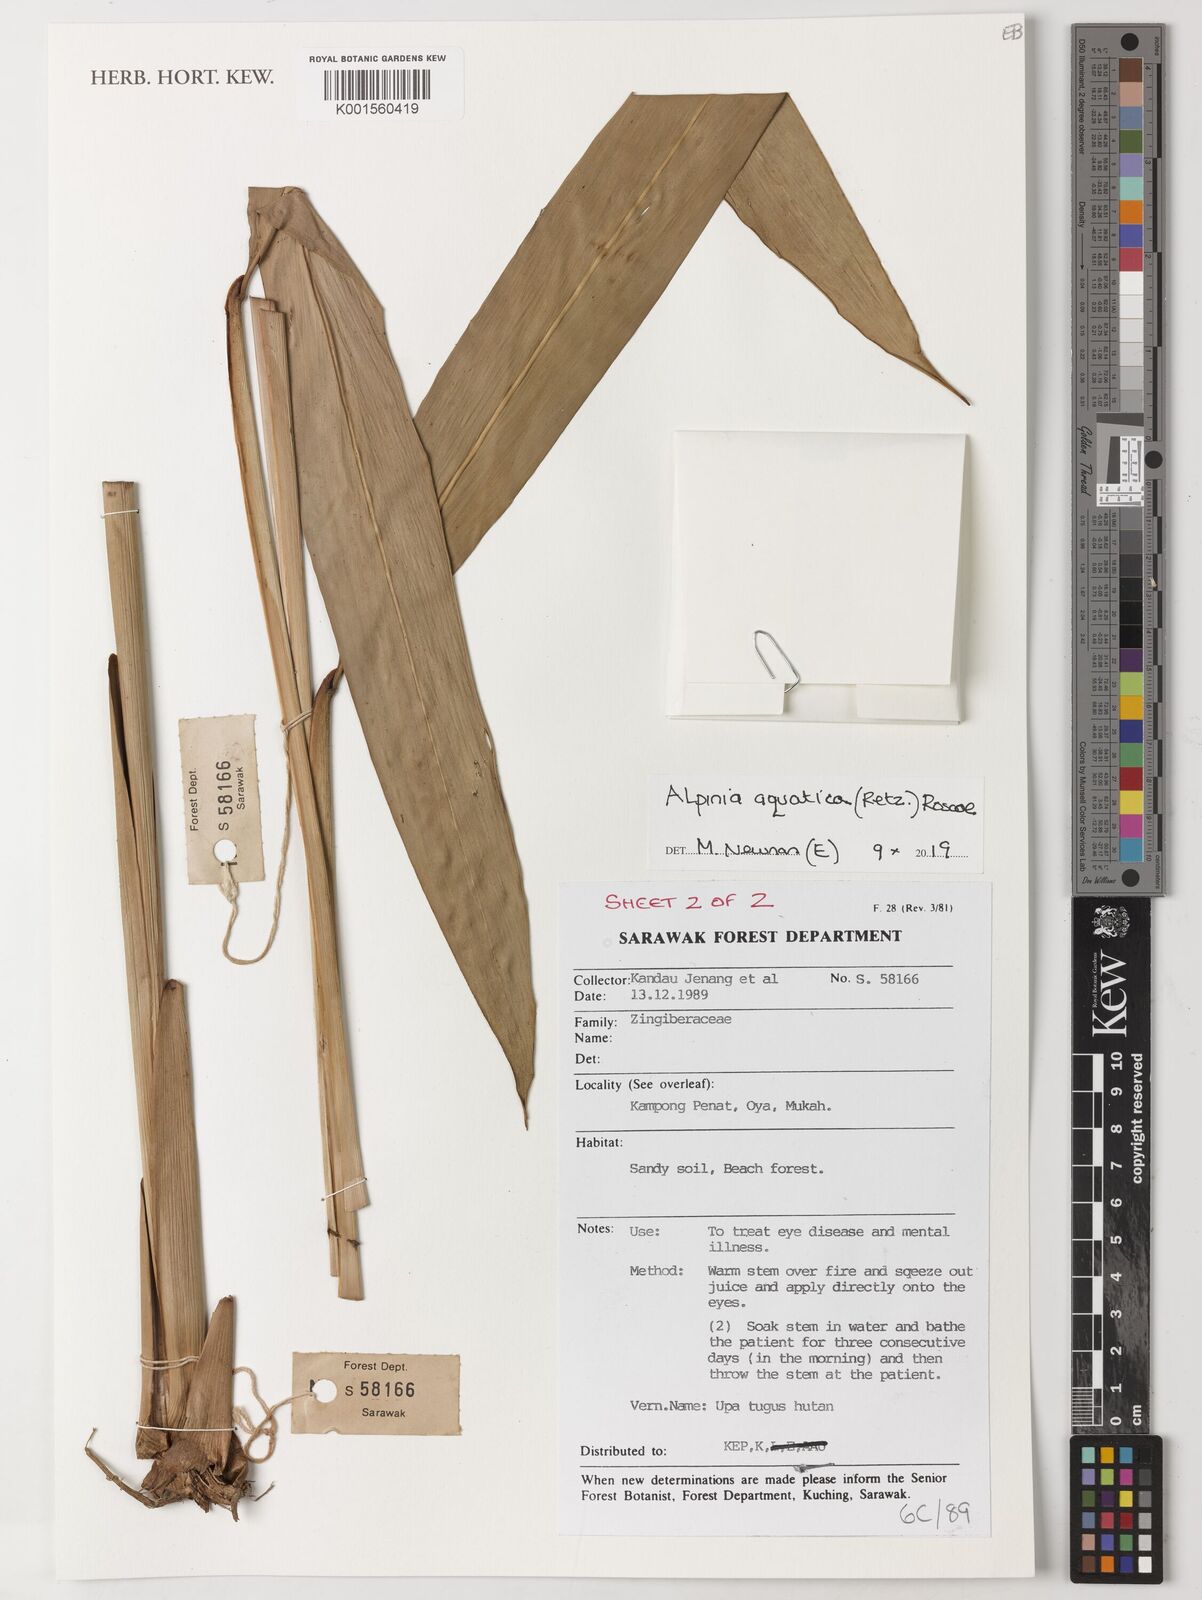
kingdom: Plantae
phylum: Tracheophyta
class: Liliopsida
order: Zingiberales
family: Zingiberaceae
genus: Alpinia
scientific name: Alpinia aquatica
